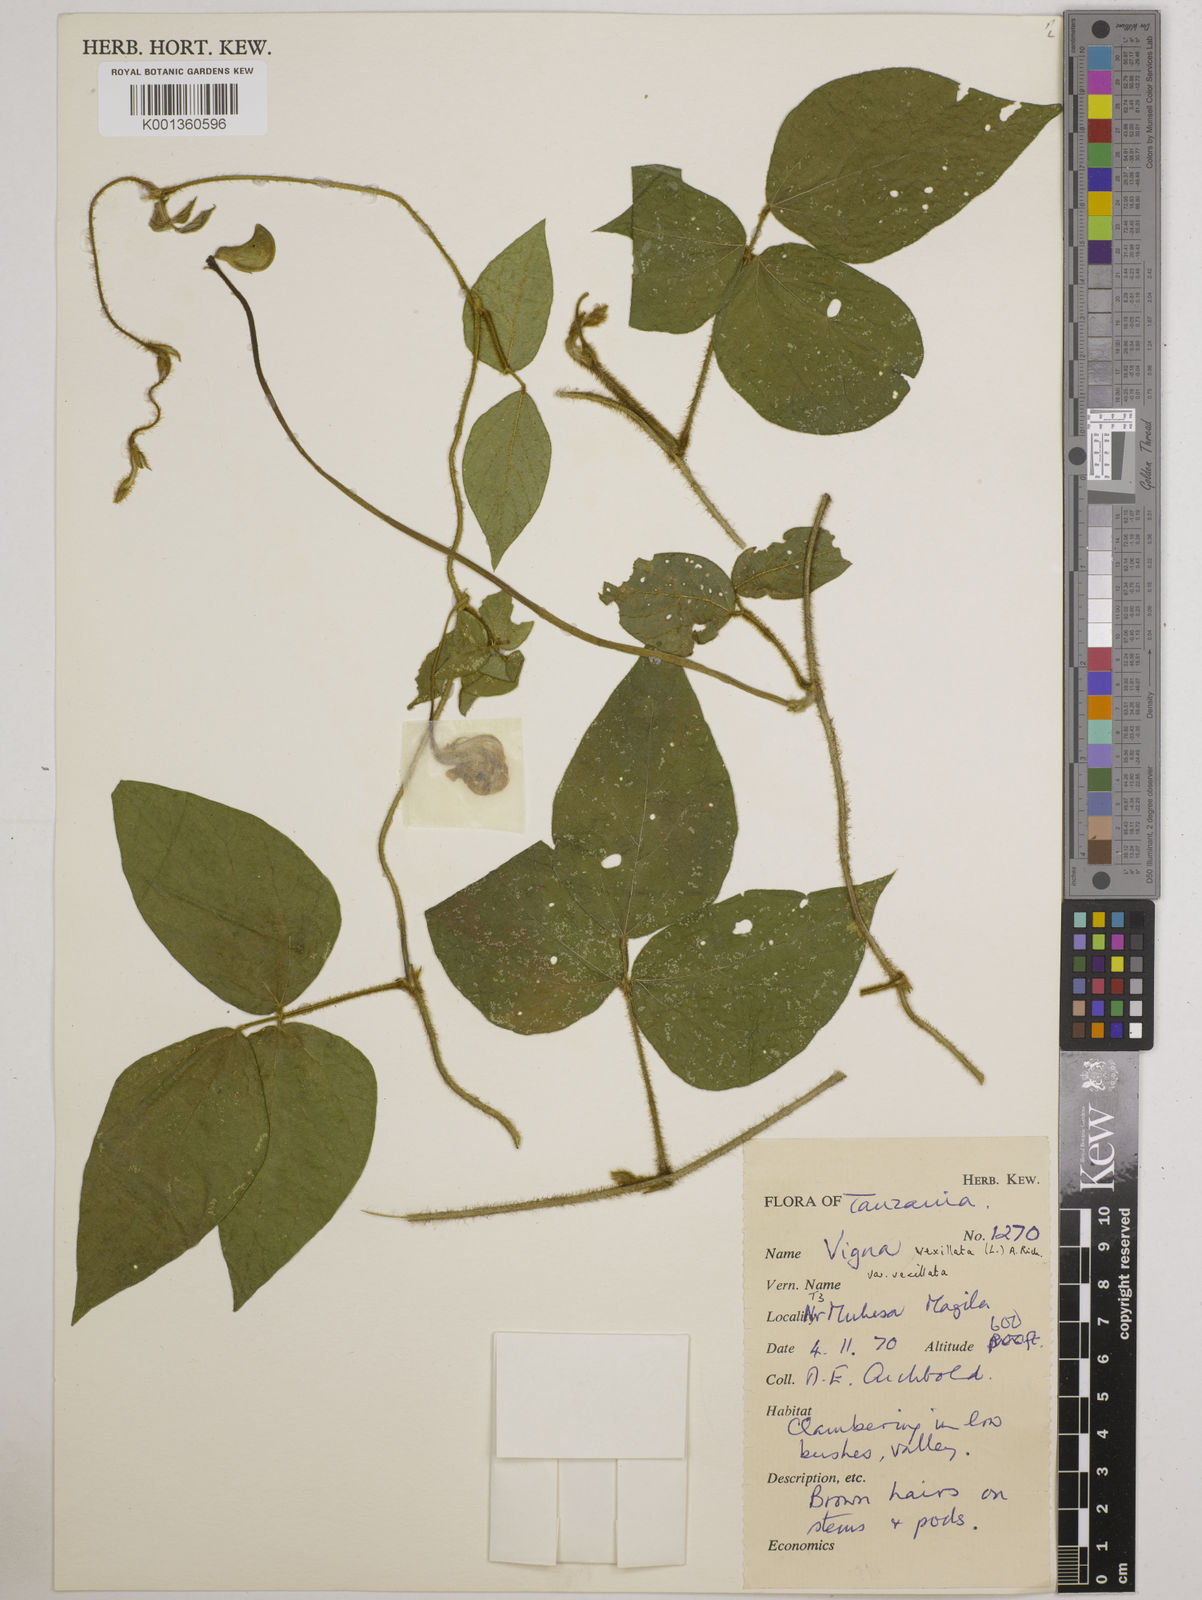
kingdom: Plantae
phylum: Tracheophyta
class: Magnoliopsida
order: Fabales
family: Fabaceae
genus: Vigna
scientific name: Vigna vexillata
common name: Zombi pea
